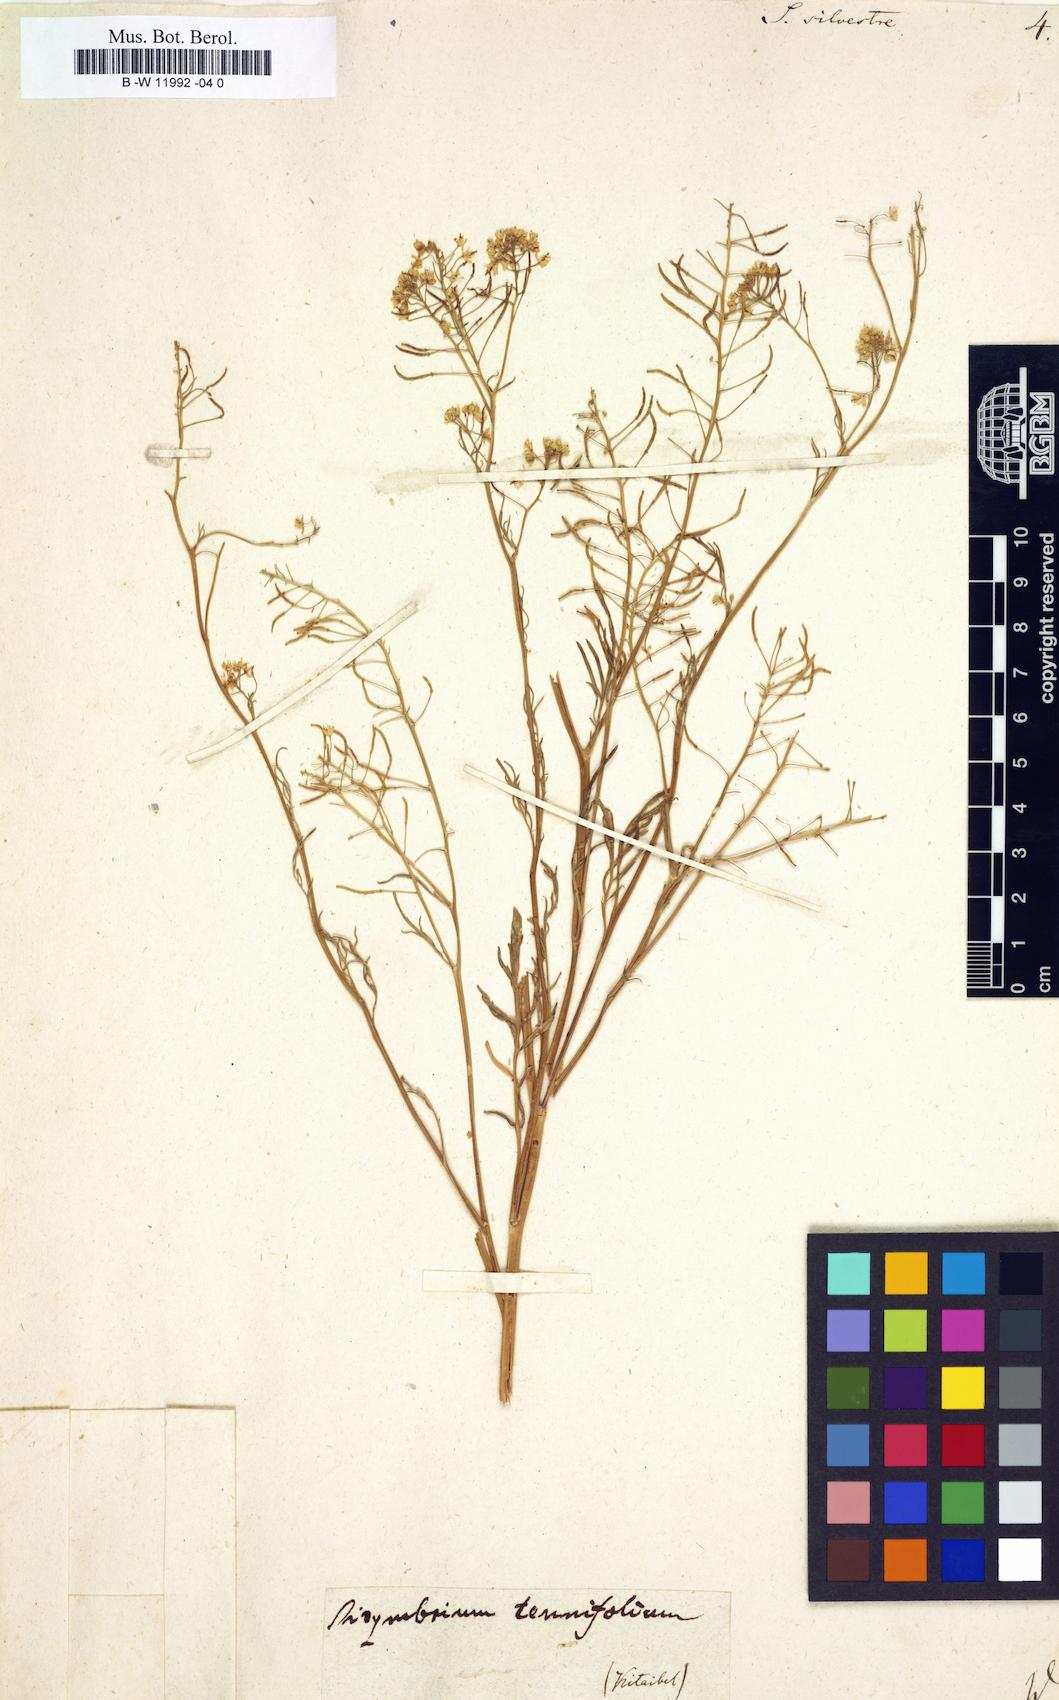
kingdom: Plantae
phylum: Tracheophyta
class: Magnoliopsida
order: Brassicales
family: Brassicaceae
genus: Rorippa
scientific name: Rorippa sylvestris
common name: Creeping yellowcress
